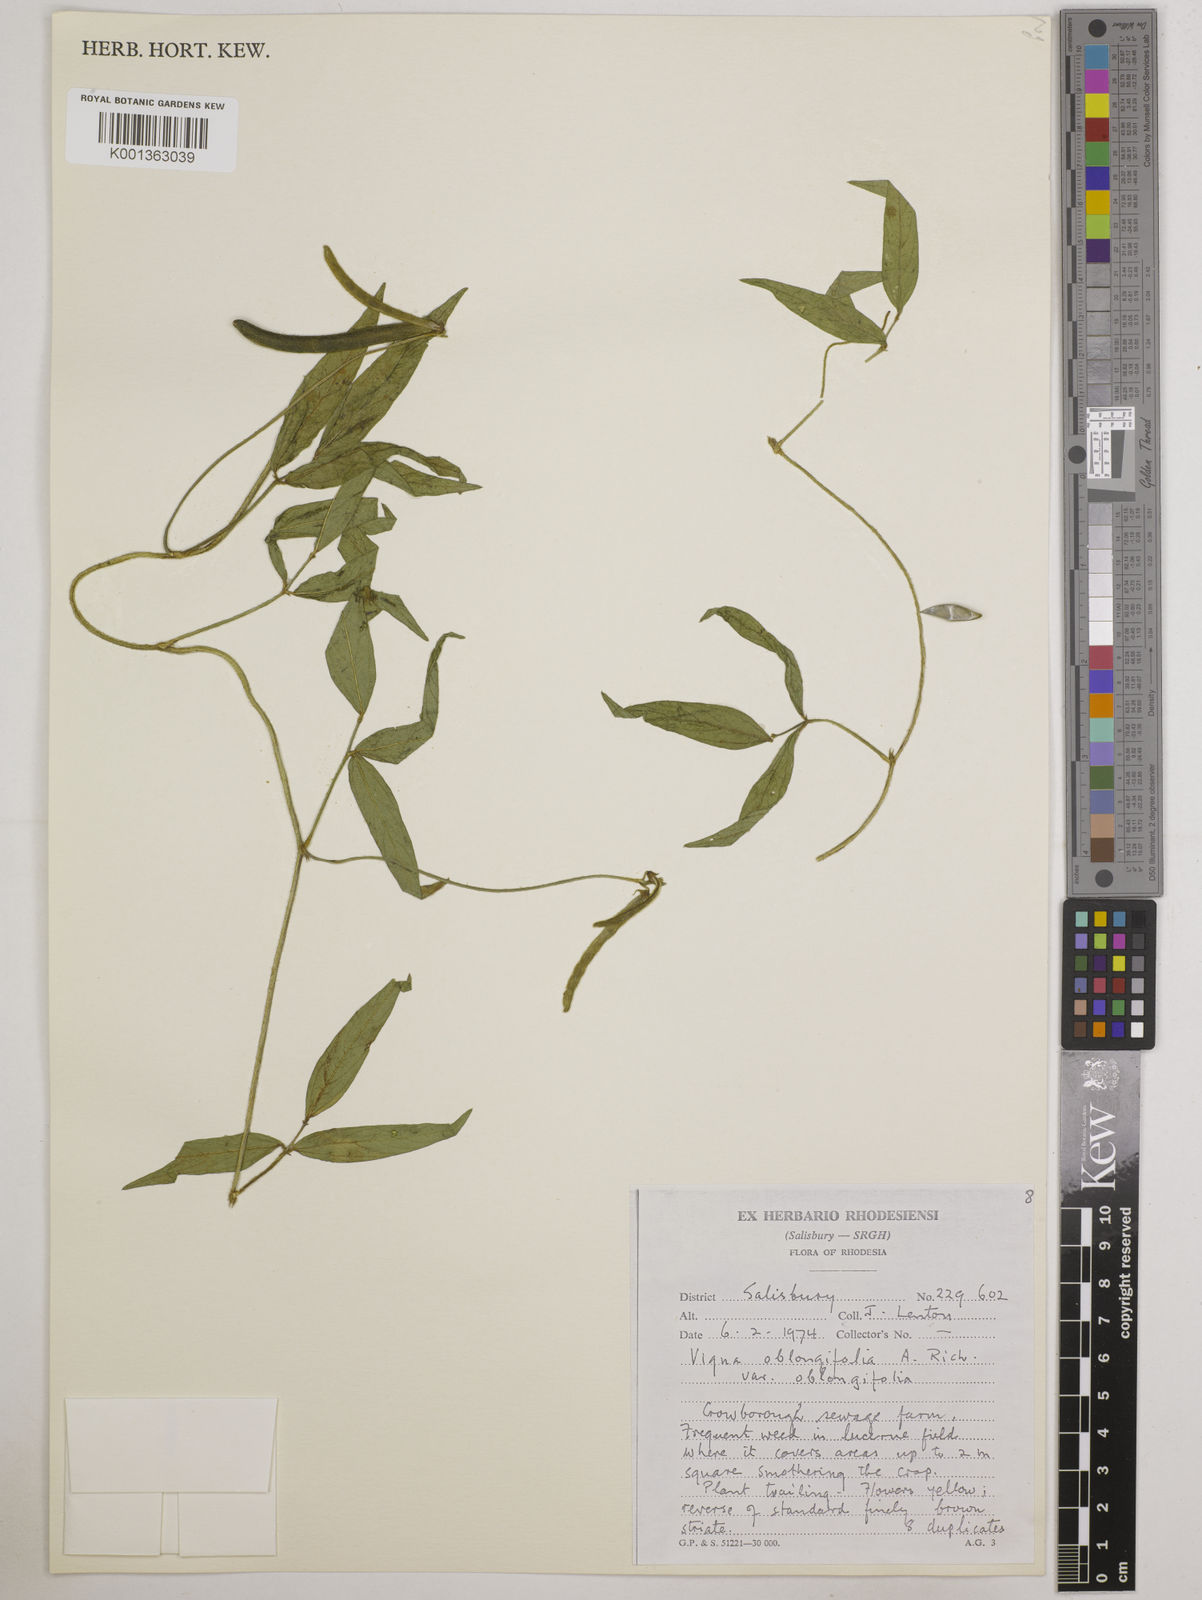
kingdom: Plantae
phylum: Tracheophyta
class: Magnoliopsida
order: Fabales
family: Fabaceae
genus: Vigna
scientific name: Vigna oblongifolia
